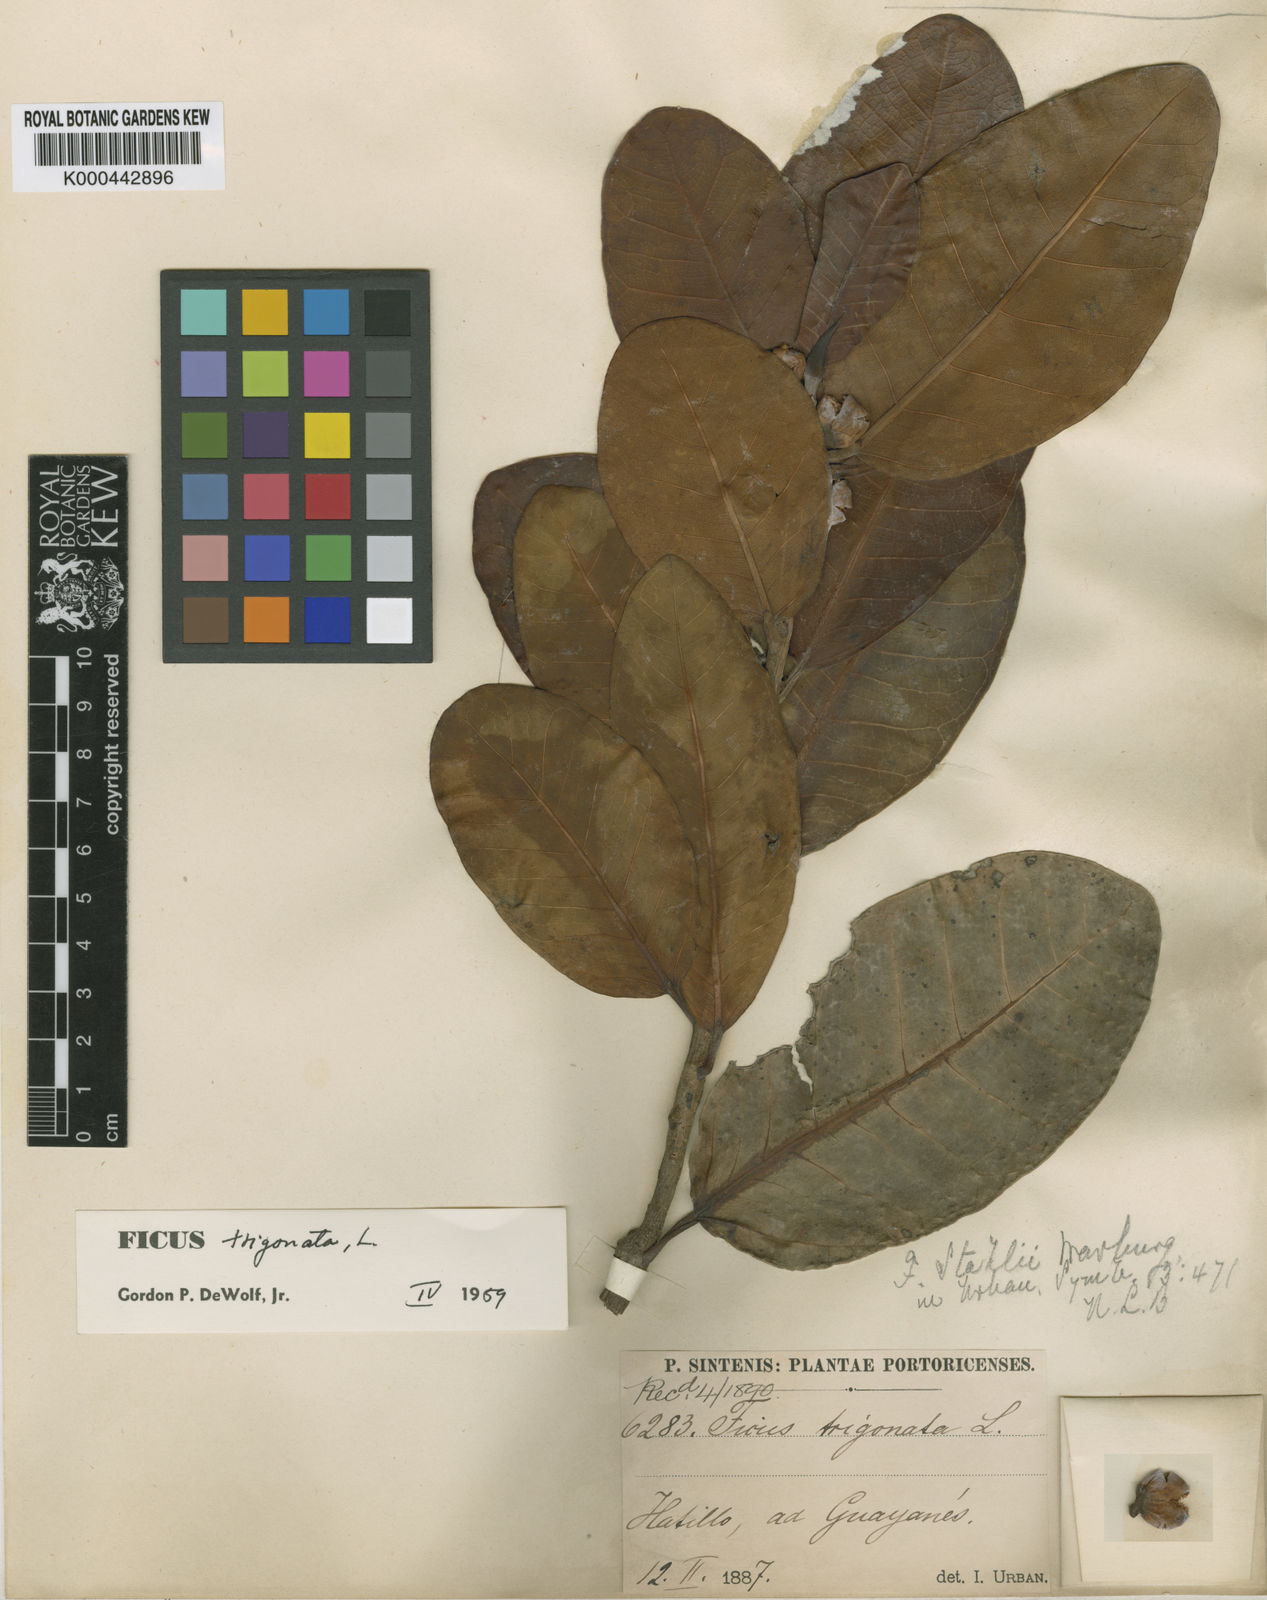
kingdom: Plantae
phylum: Tracheophyta
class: Magnoliopsida
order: Rosales
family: Moraceae
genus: Ficus
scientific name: Ficus trigonata
